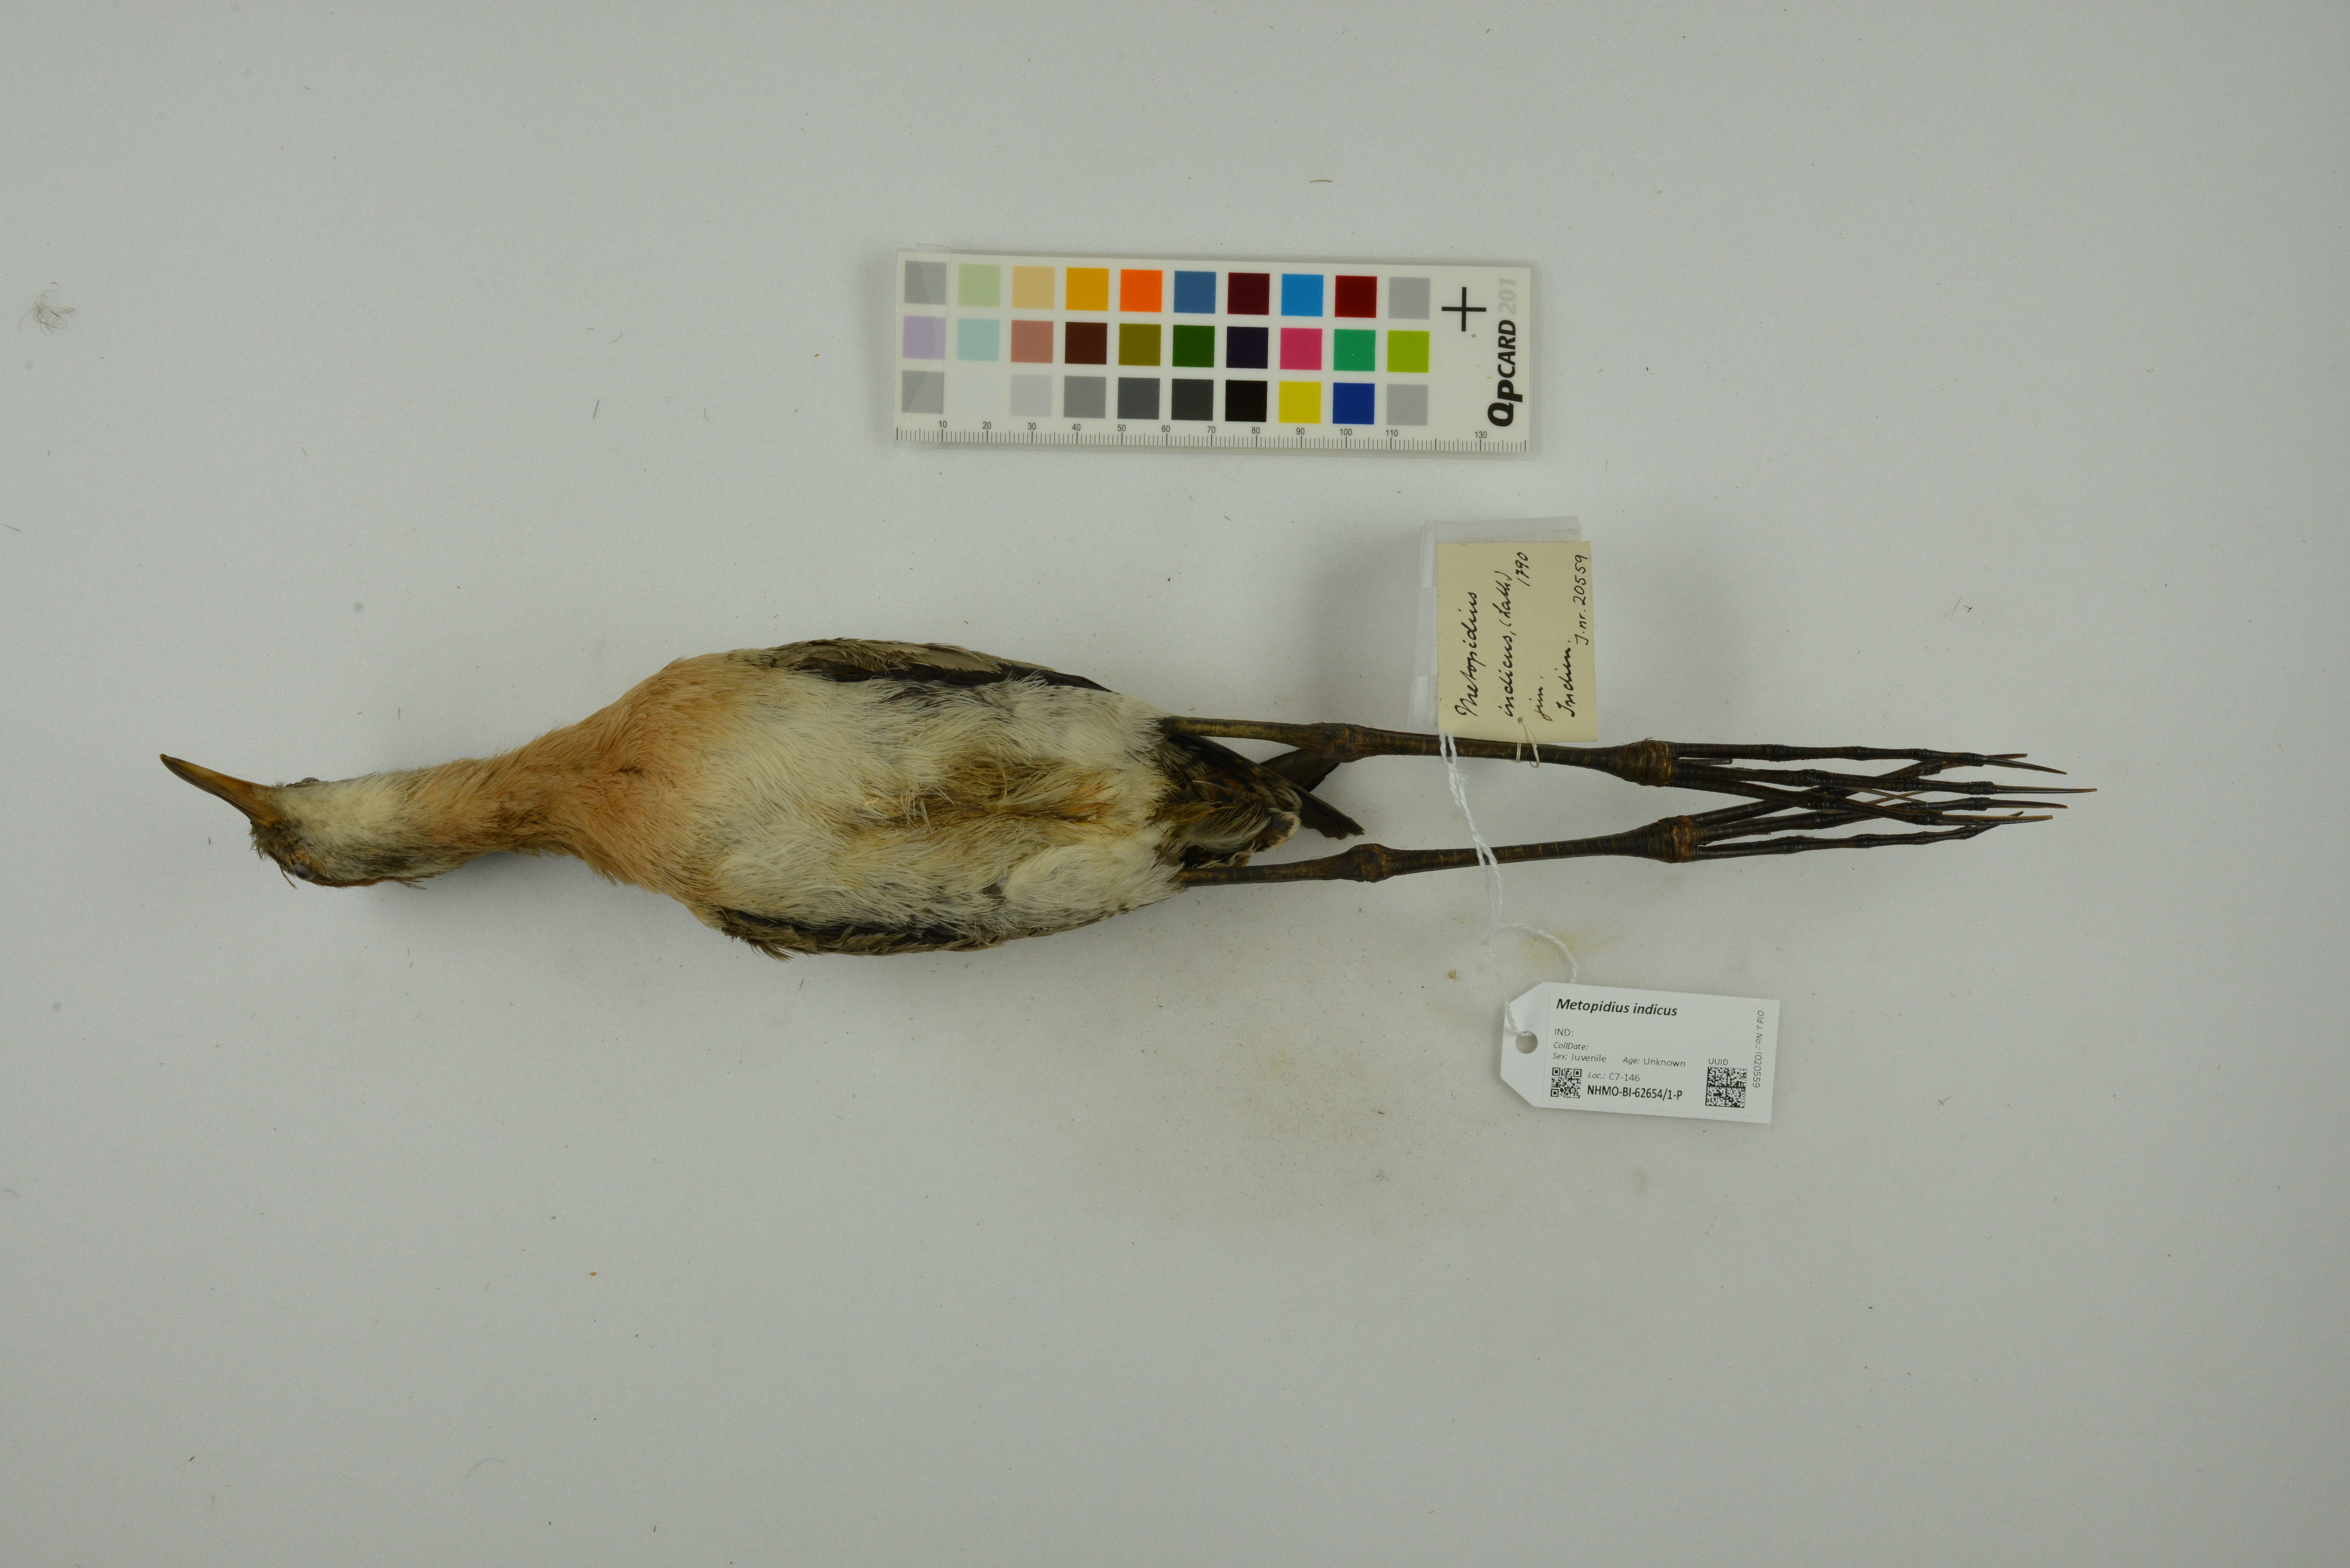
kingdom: Animalia
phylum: Chordata
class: Aves
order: Charadriiformes
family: Jacanidae
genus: Metopidius
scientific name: Metopidius indicus
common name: Bronze-winged jacana
